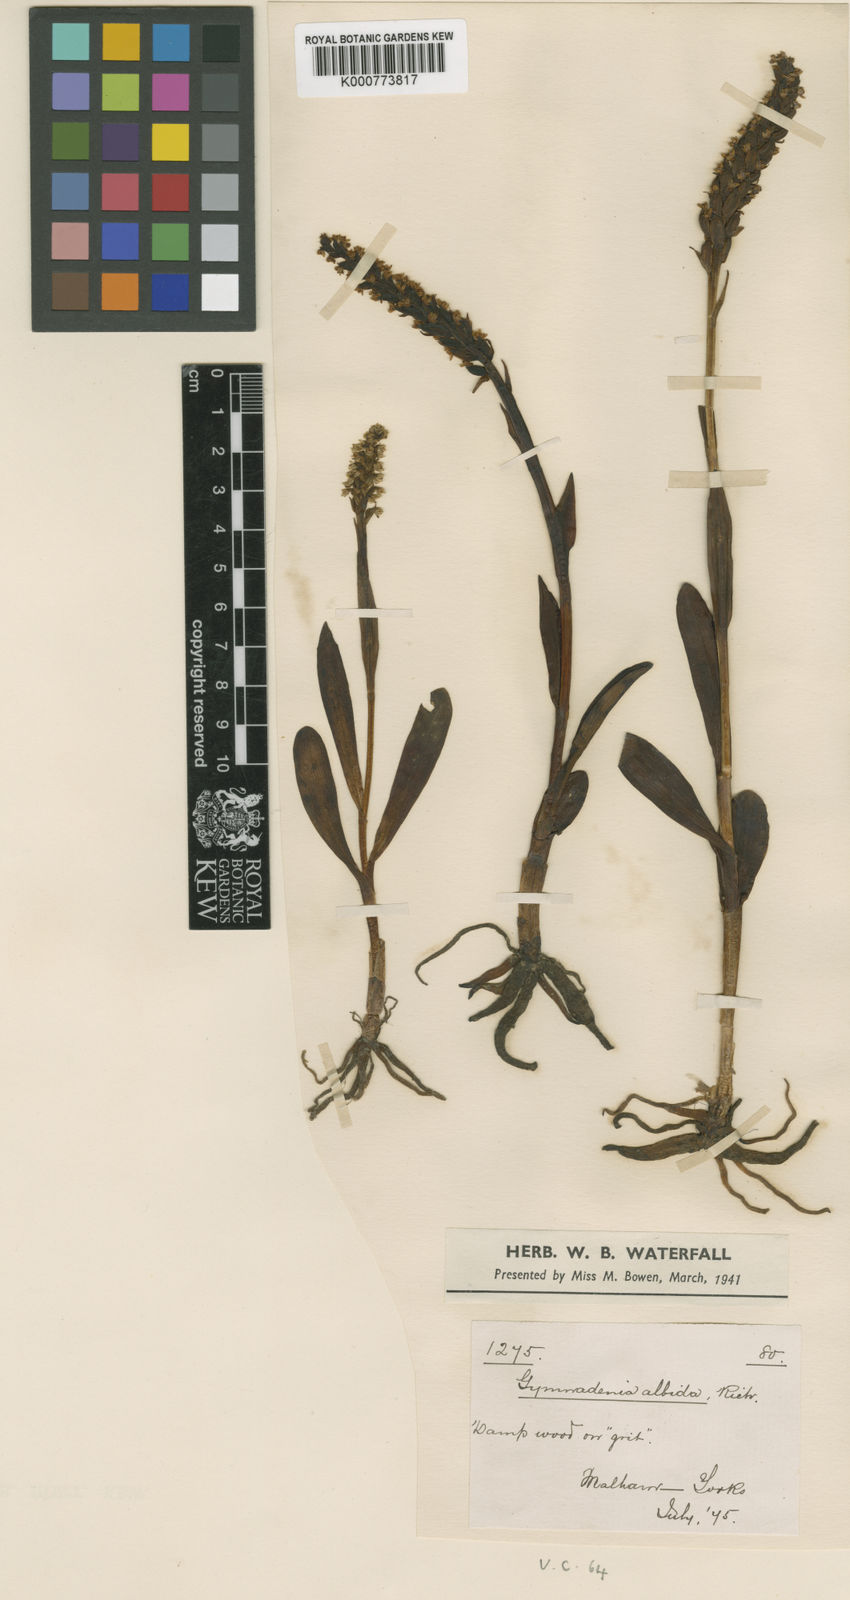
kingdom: Plantae
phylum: Tracheophyta
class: Liliopsida
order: Asparagales
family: Orchidaceae
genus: Pseudorchis
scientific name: Pseudorchis
